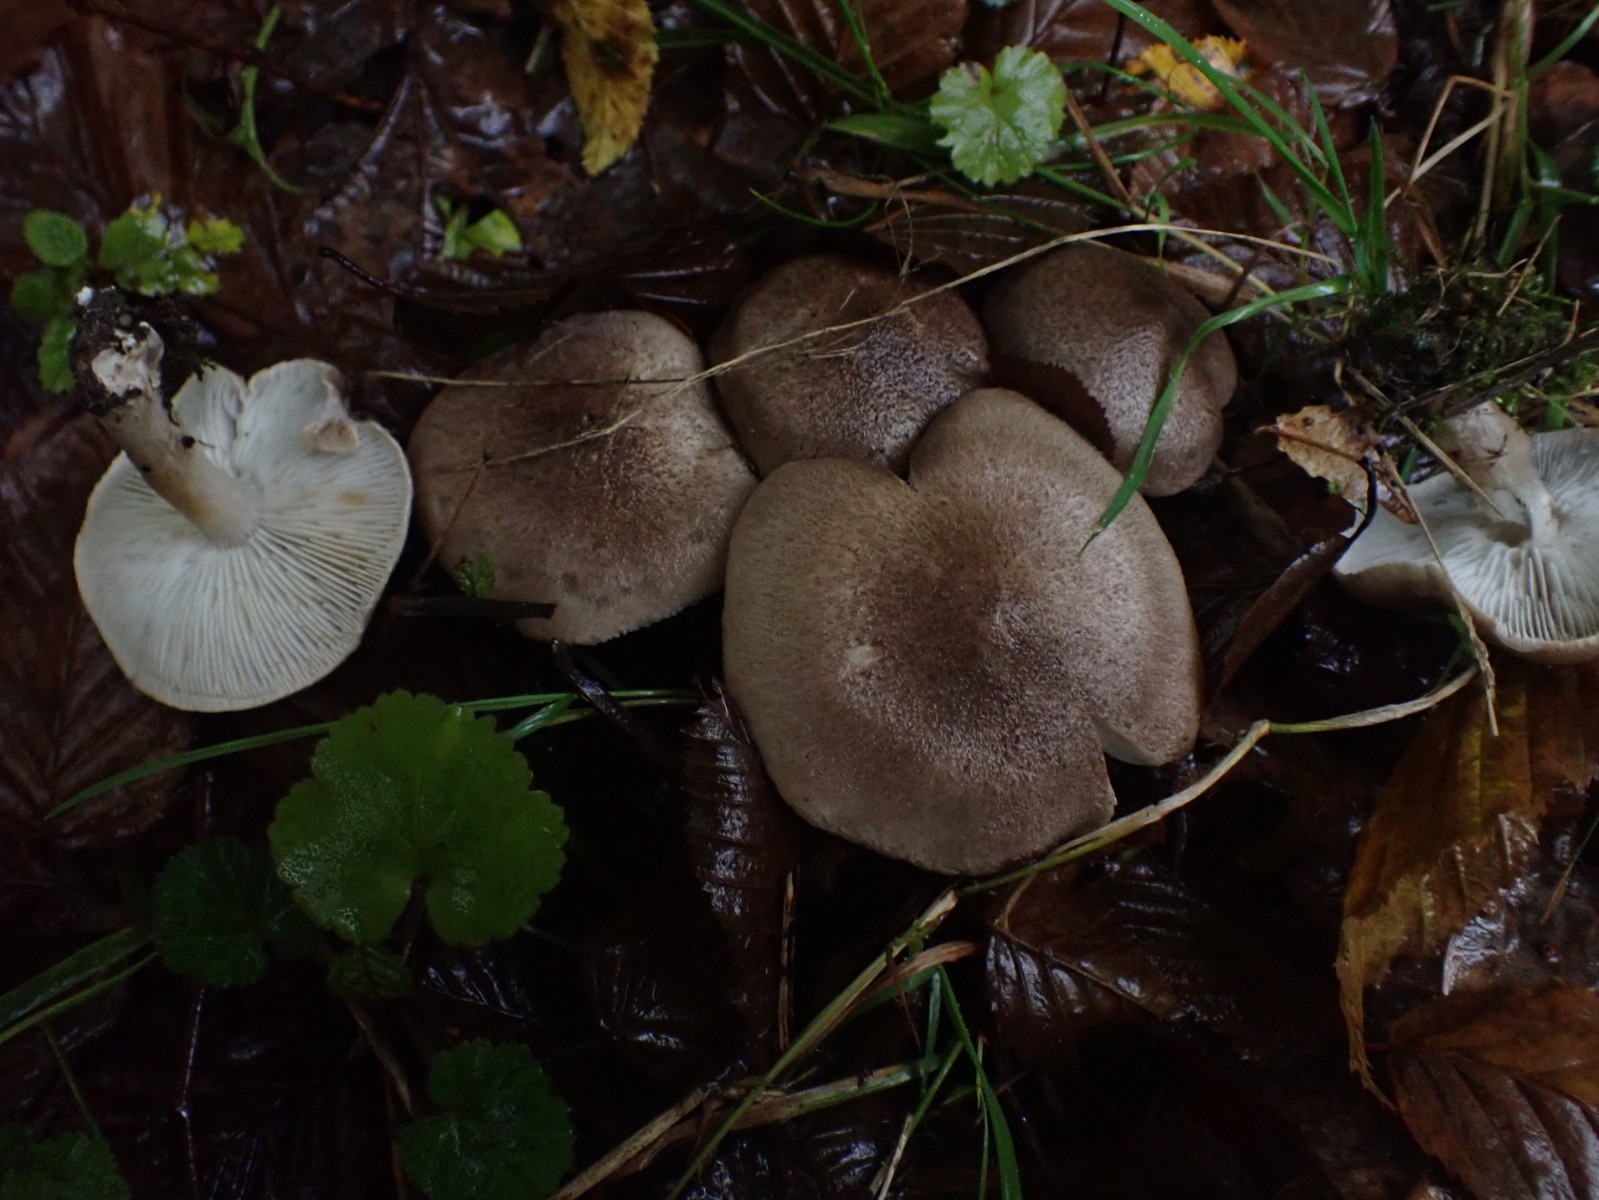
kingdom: Fungi
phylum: Basidiomycota
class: Agaricomycetes
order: Agaricales
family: Tricholomataceae
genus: Tricholoma
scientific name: Tricholoma scalpturatum
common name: gulplettet ridderhat
